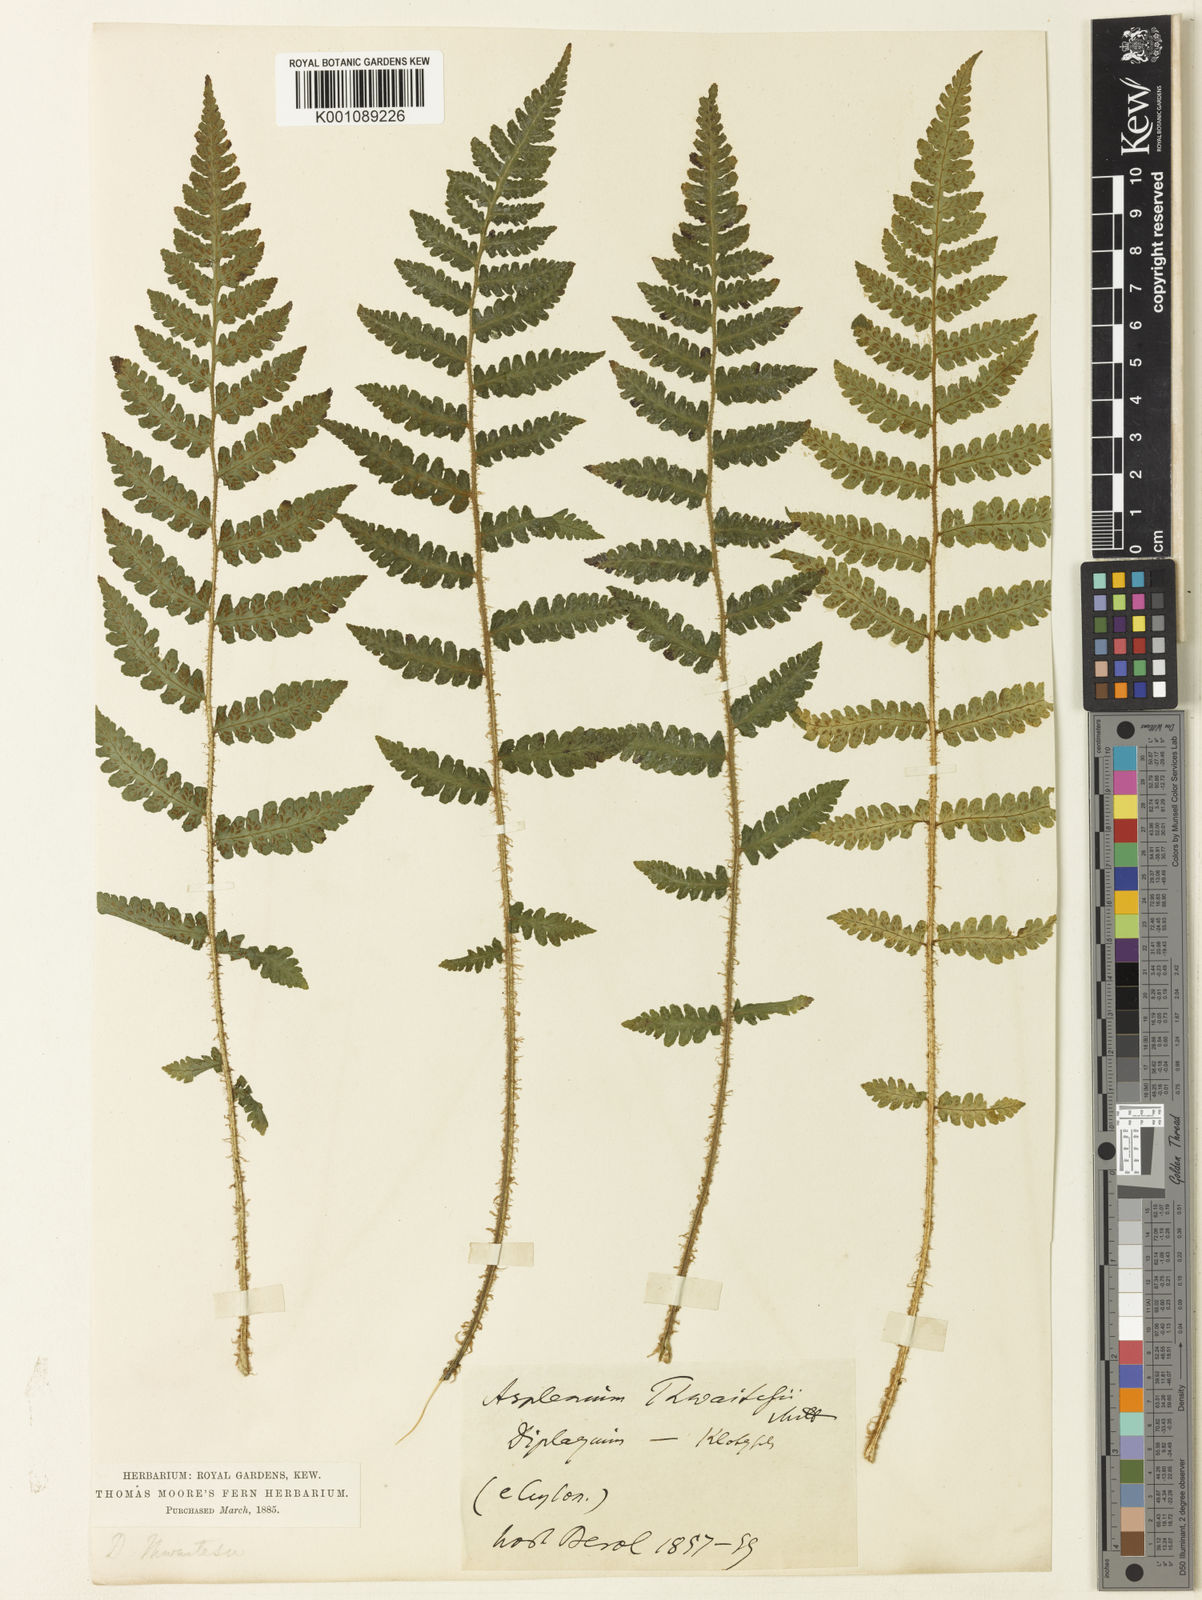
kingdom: Plantae
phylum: Tracheophyta
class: Polypodiopsida
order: Polypodiales
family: Athyriaceae
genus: Deparia
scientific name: Deparia
